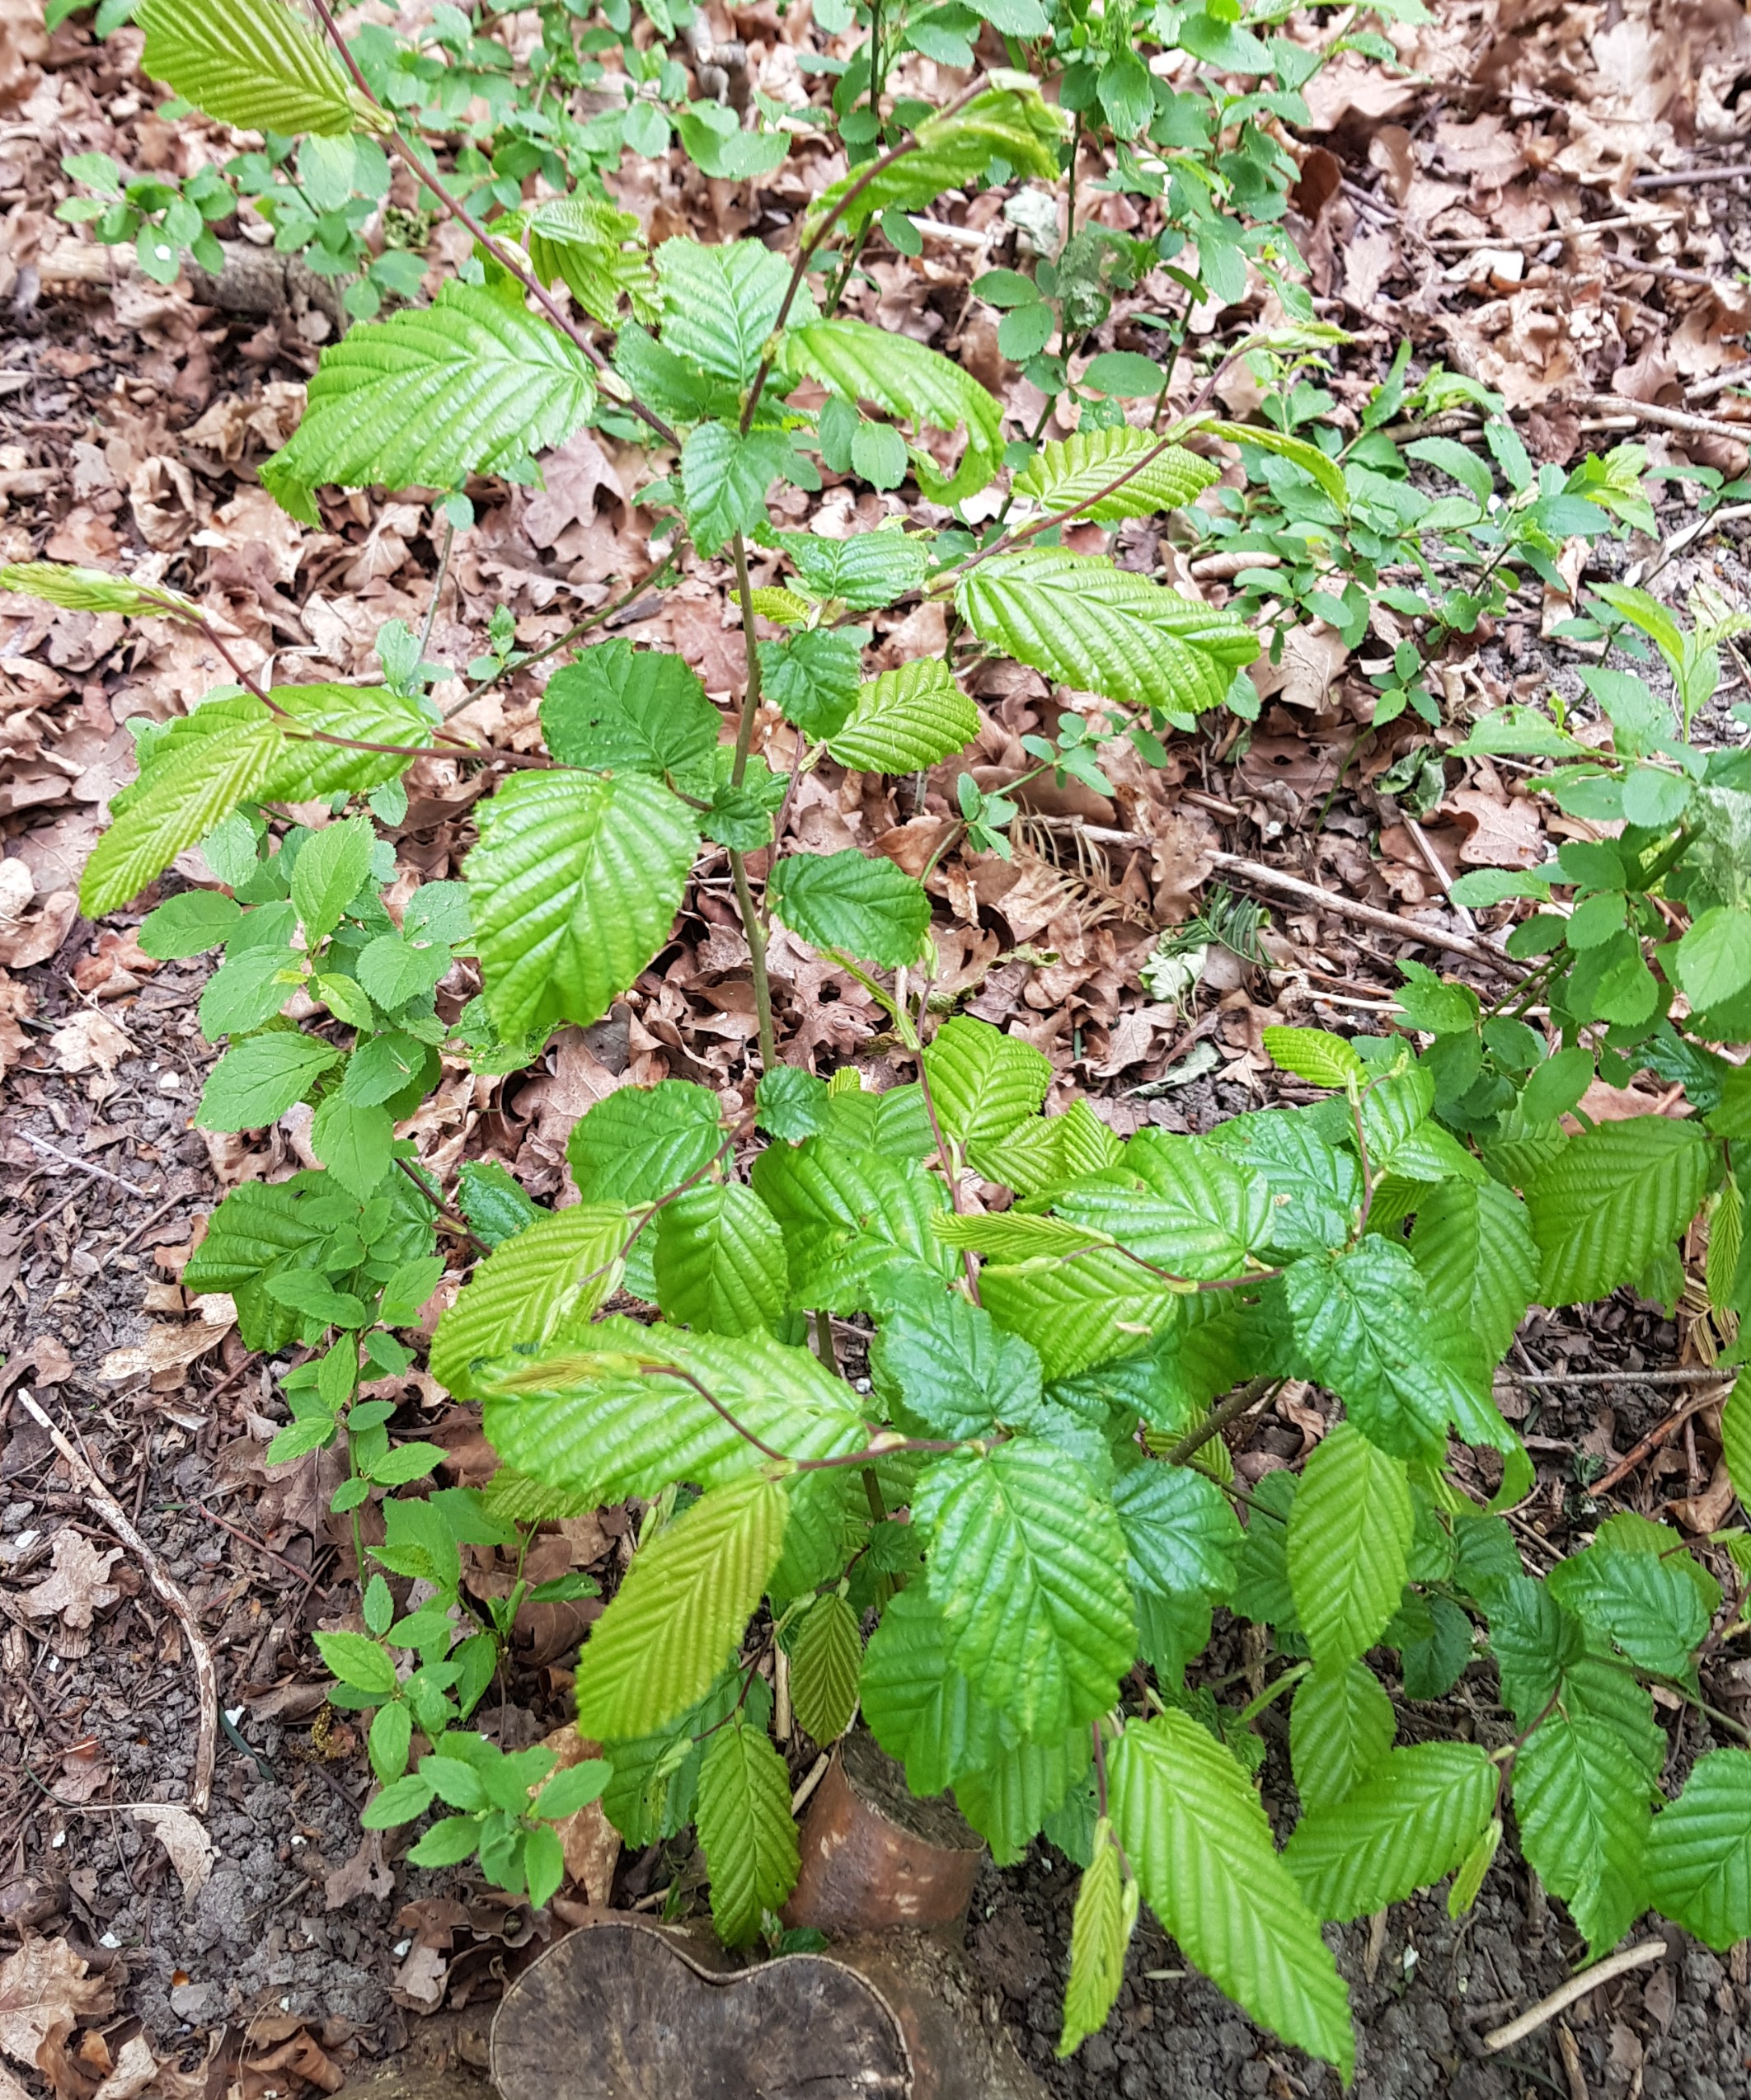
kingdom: Plantae
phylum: Tracheophyta
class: Magnoliopsida
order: Fagales
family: Betulaceae
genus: Carpinus
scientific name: Carpinus betulus
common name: Avnbøg
